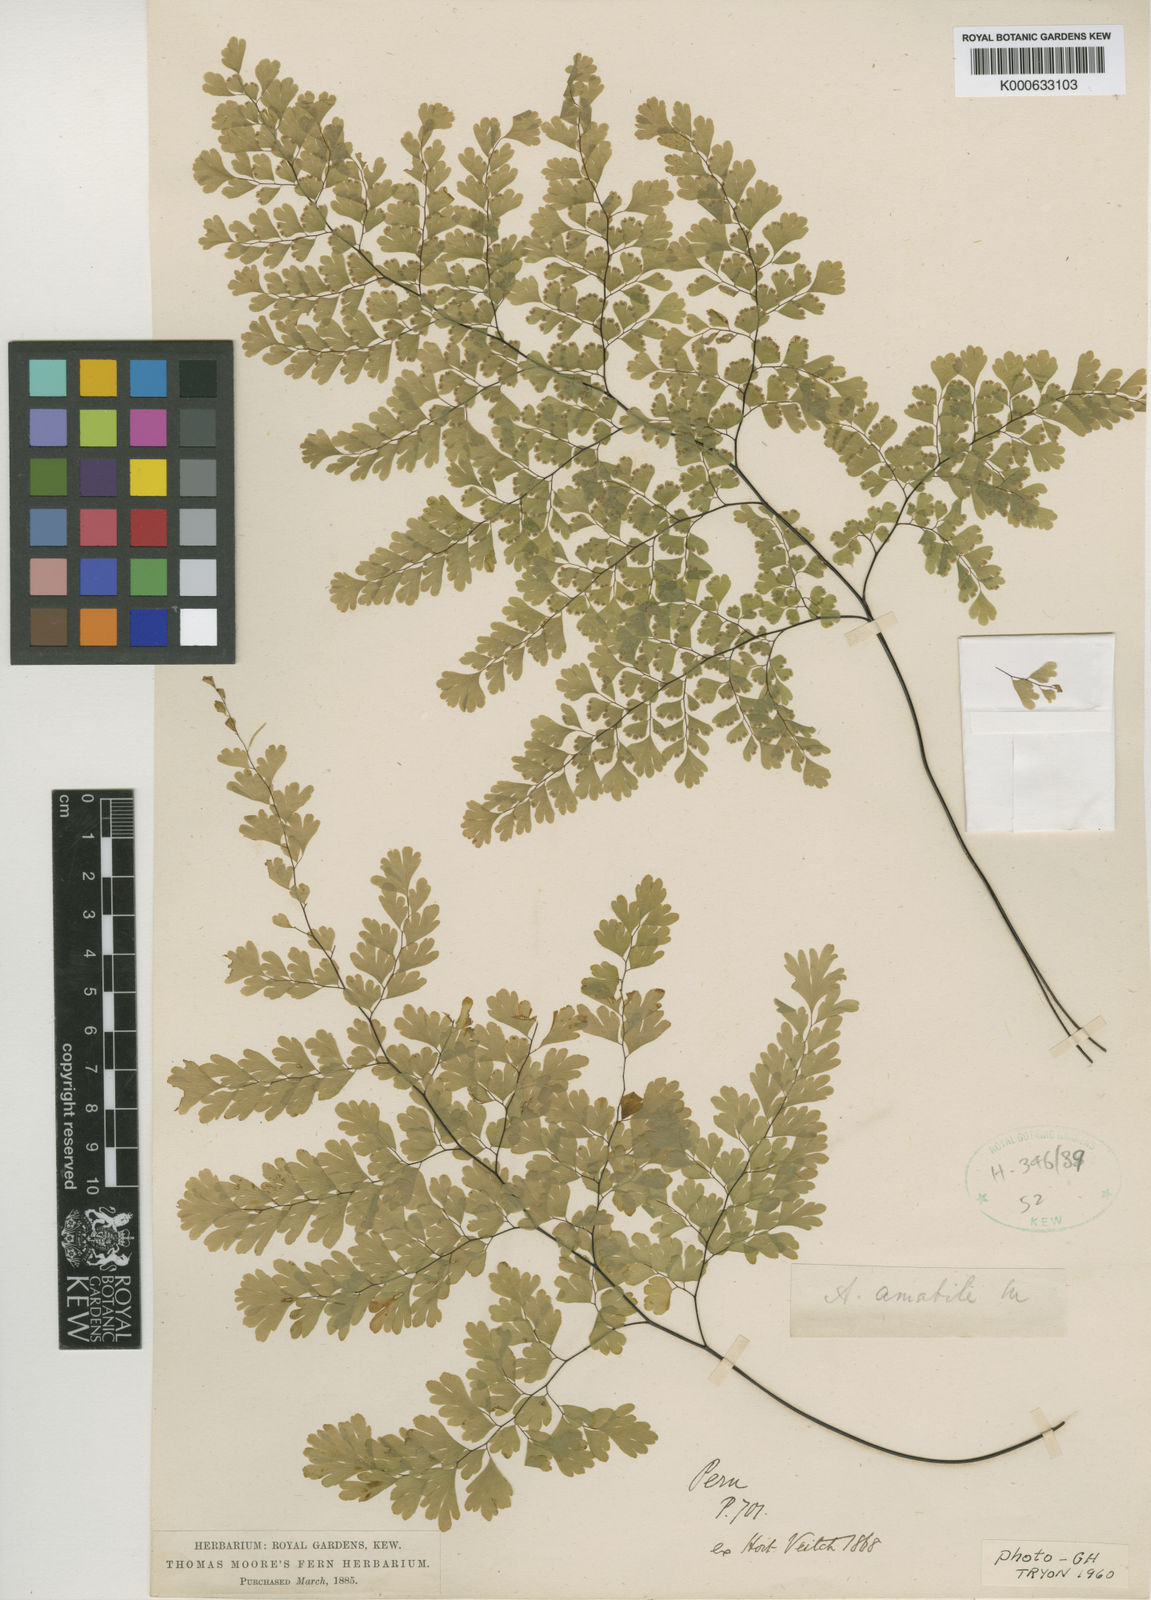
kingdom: Plantae
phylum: Tracheophyta
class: Polypodiopsida
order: Polypodiales
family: Pteridaceae
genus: Adiantum
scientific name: Adiantum raddianum
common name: Delta maidenhair fern
